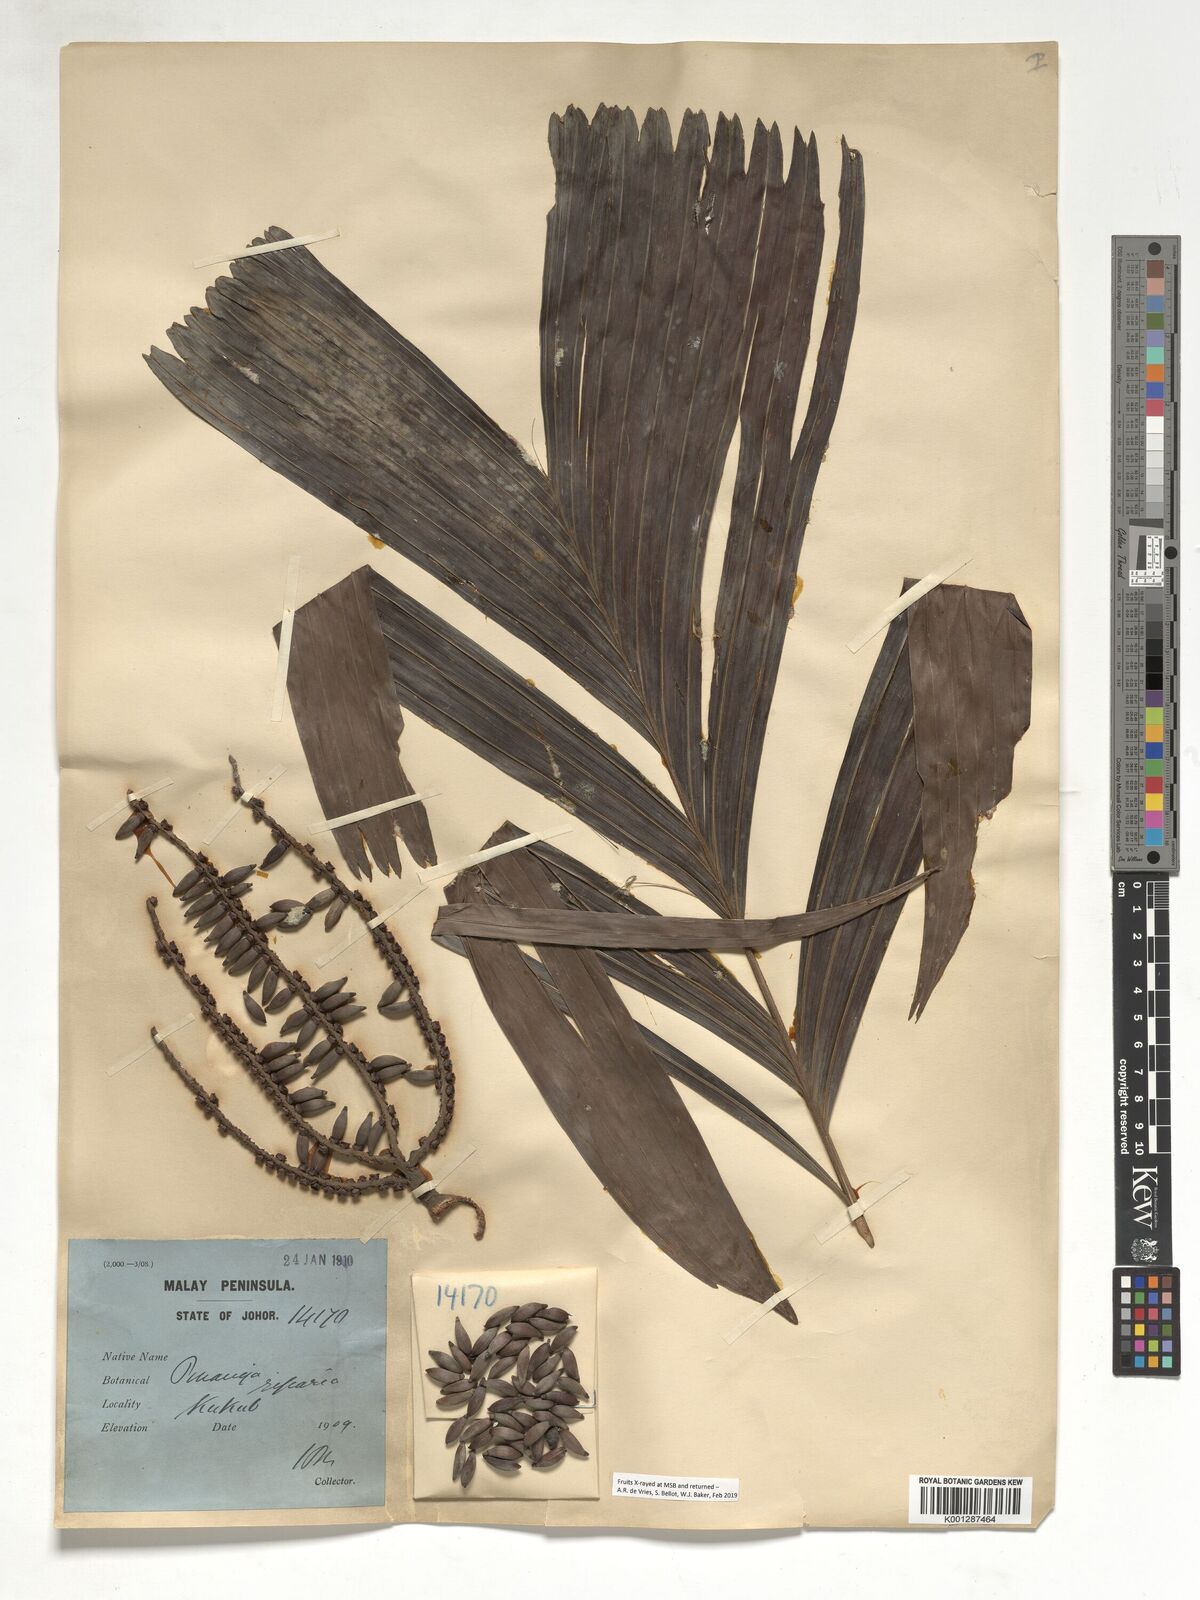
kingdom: Plantae
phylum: Tracheophyta
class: Liliopsida
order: Arecales
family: Arecaceae
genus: Pinanga
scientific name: Pinanga riparia
